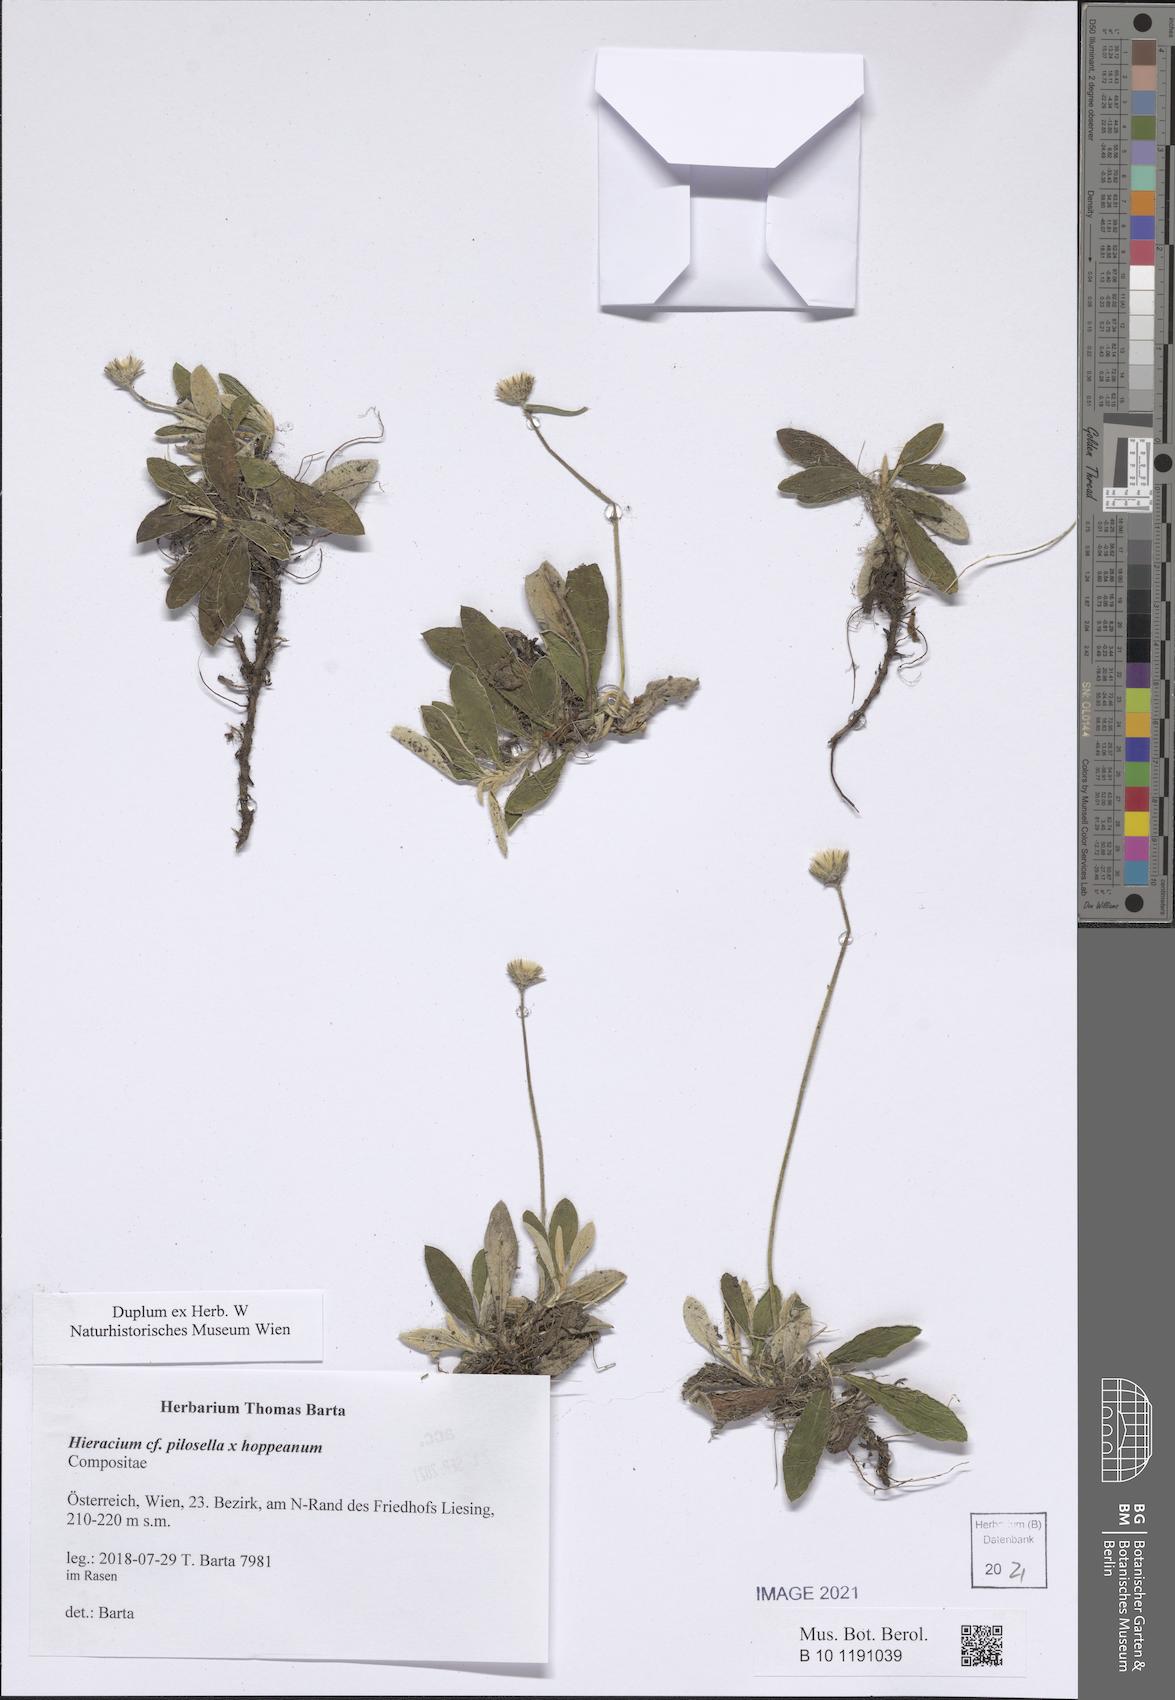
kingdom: Plantae
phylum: Tracheophyta
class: Magnoliopsida
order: Asterales
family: Asteraceae
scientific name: Asteraceae
